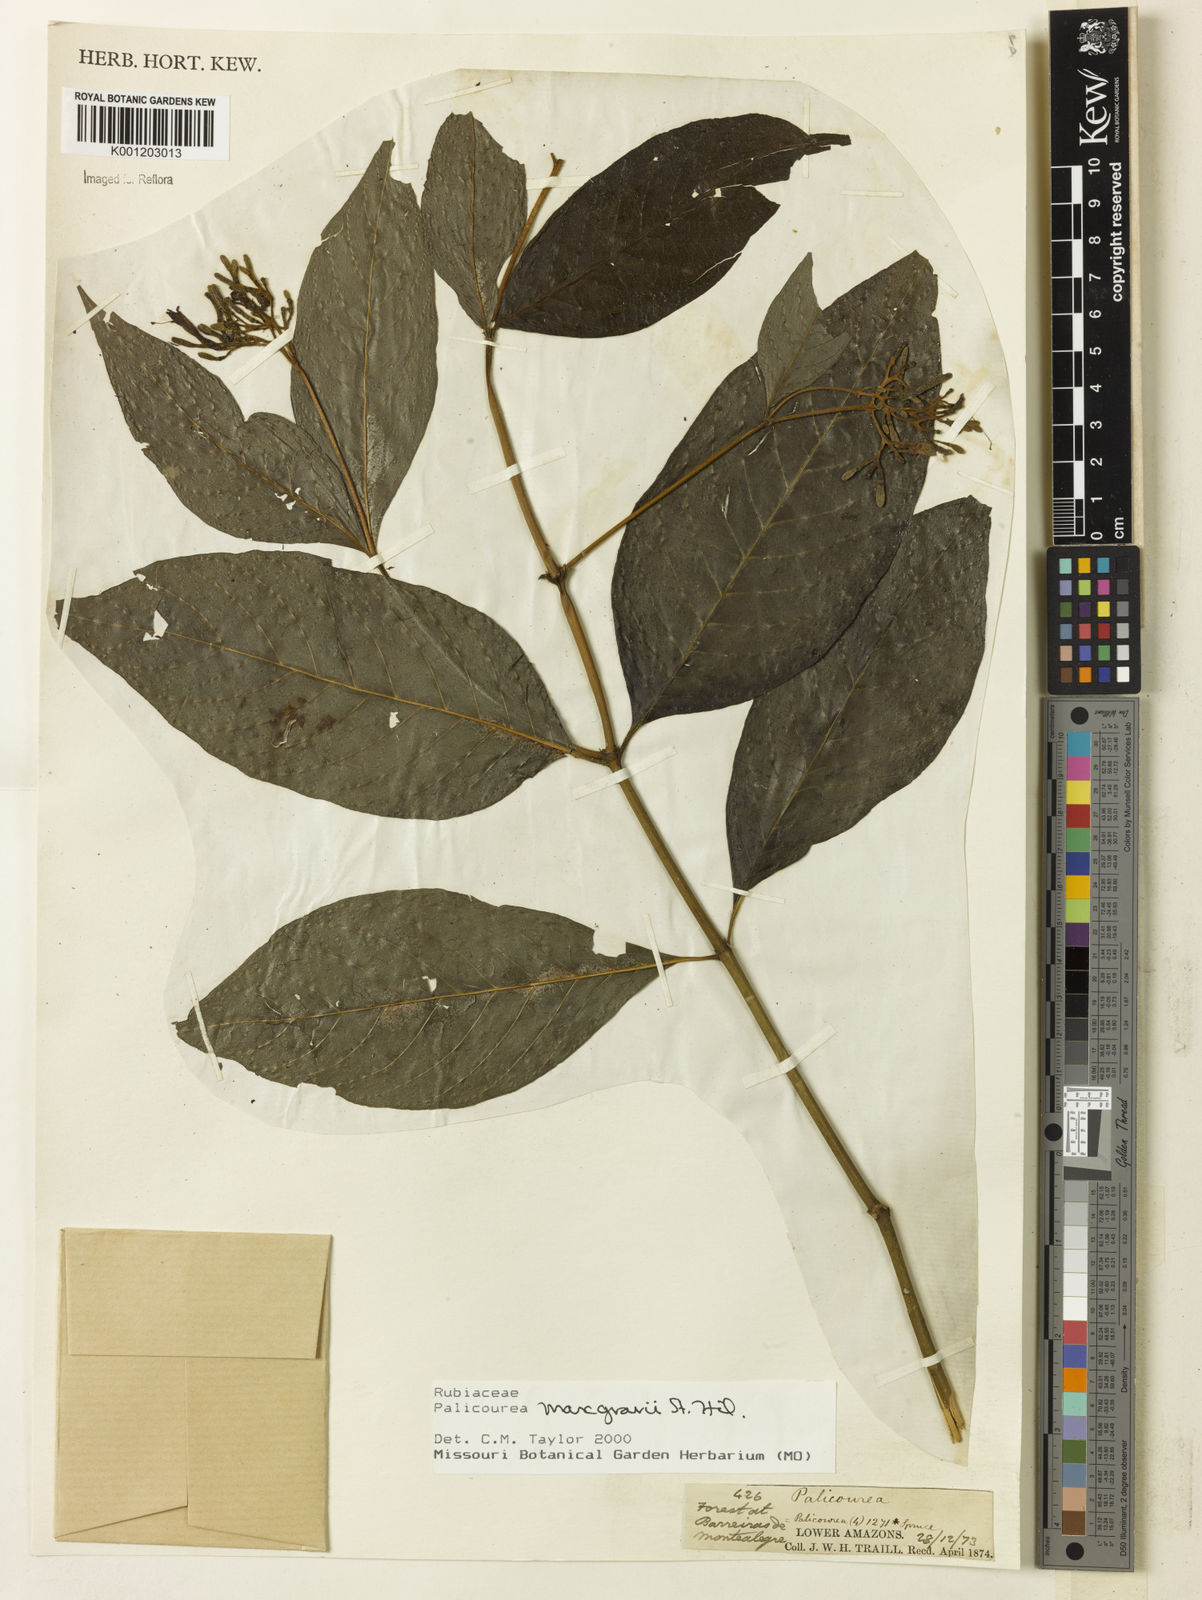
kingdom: Plantae
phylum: Tracheophyta
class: Magnoliopsida
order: Gentianales
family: Rubiaceae
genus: Palicourea
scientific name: Palicourea marcgravii
